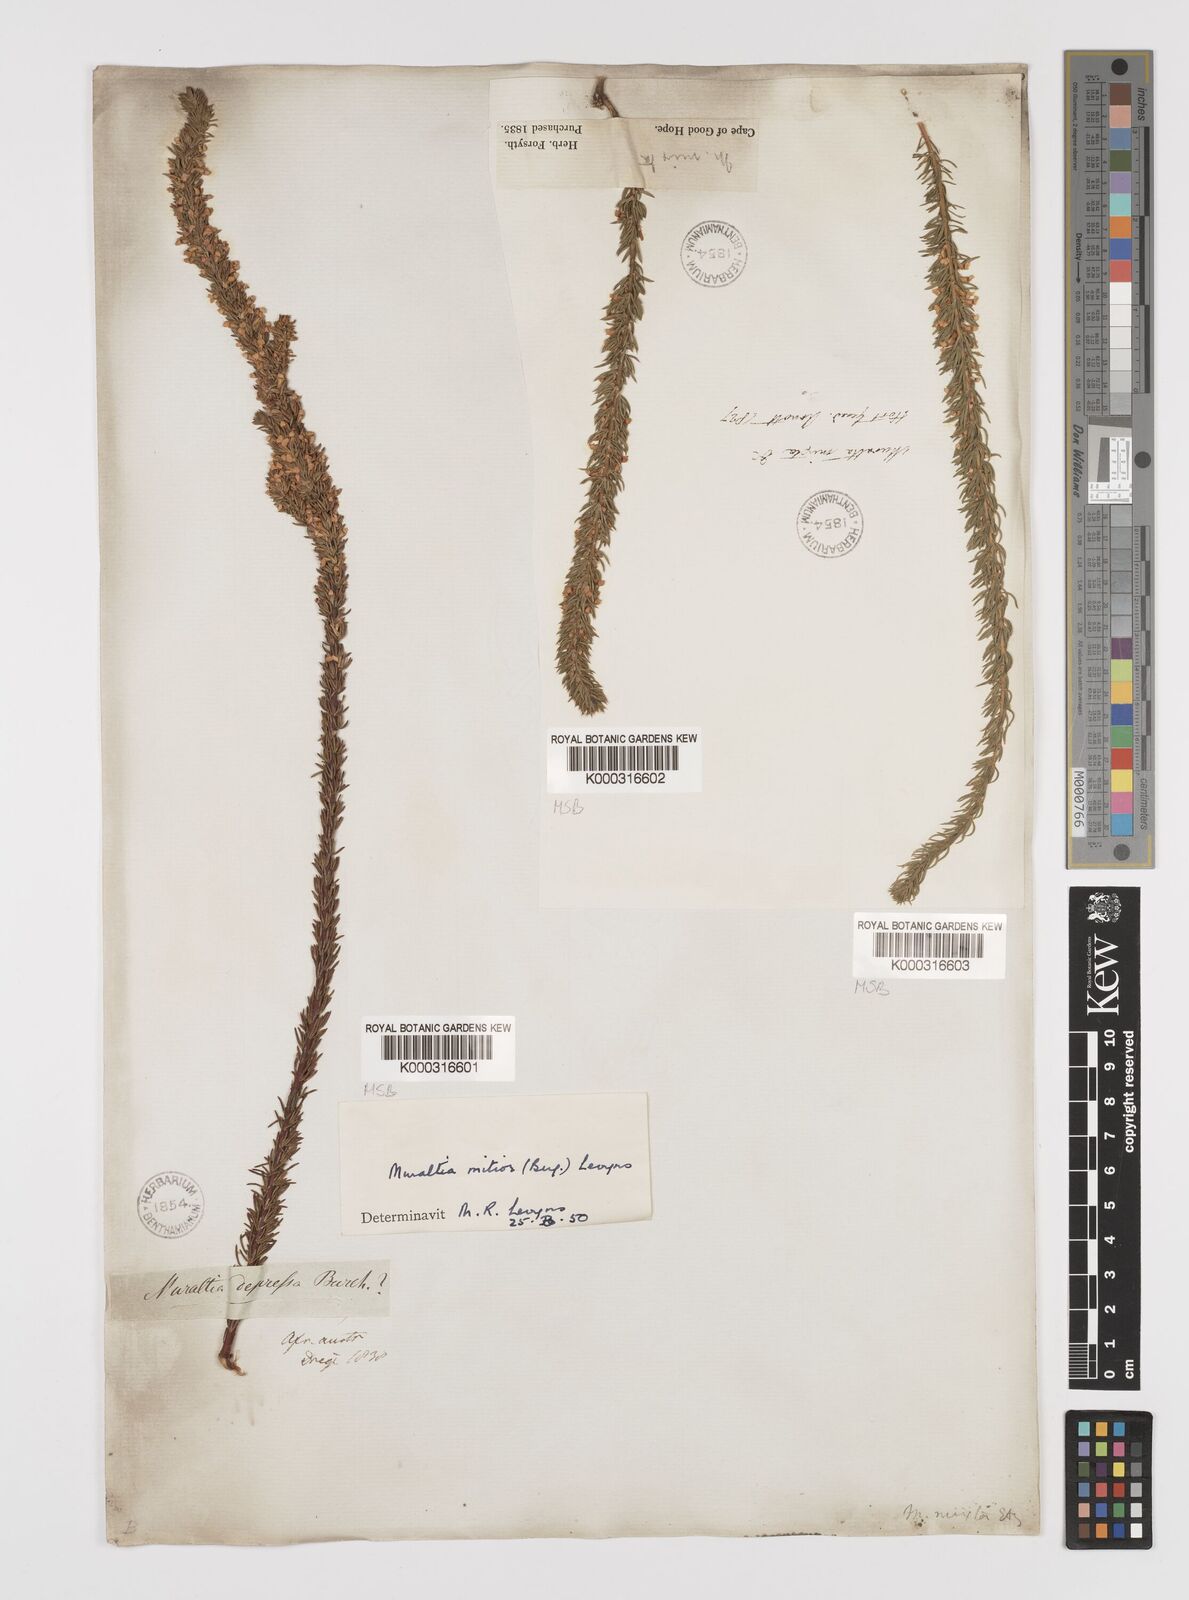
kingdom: Plantae
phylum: Tracheophyta
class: Magnoliopsida
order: Fabales
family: Polygalaceae
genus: Muraltia
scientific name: Muraltia
